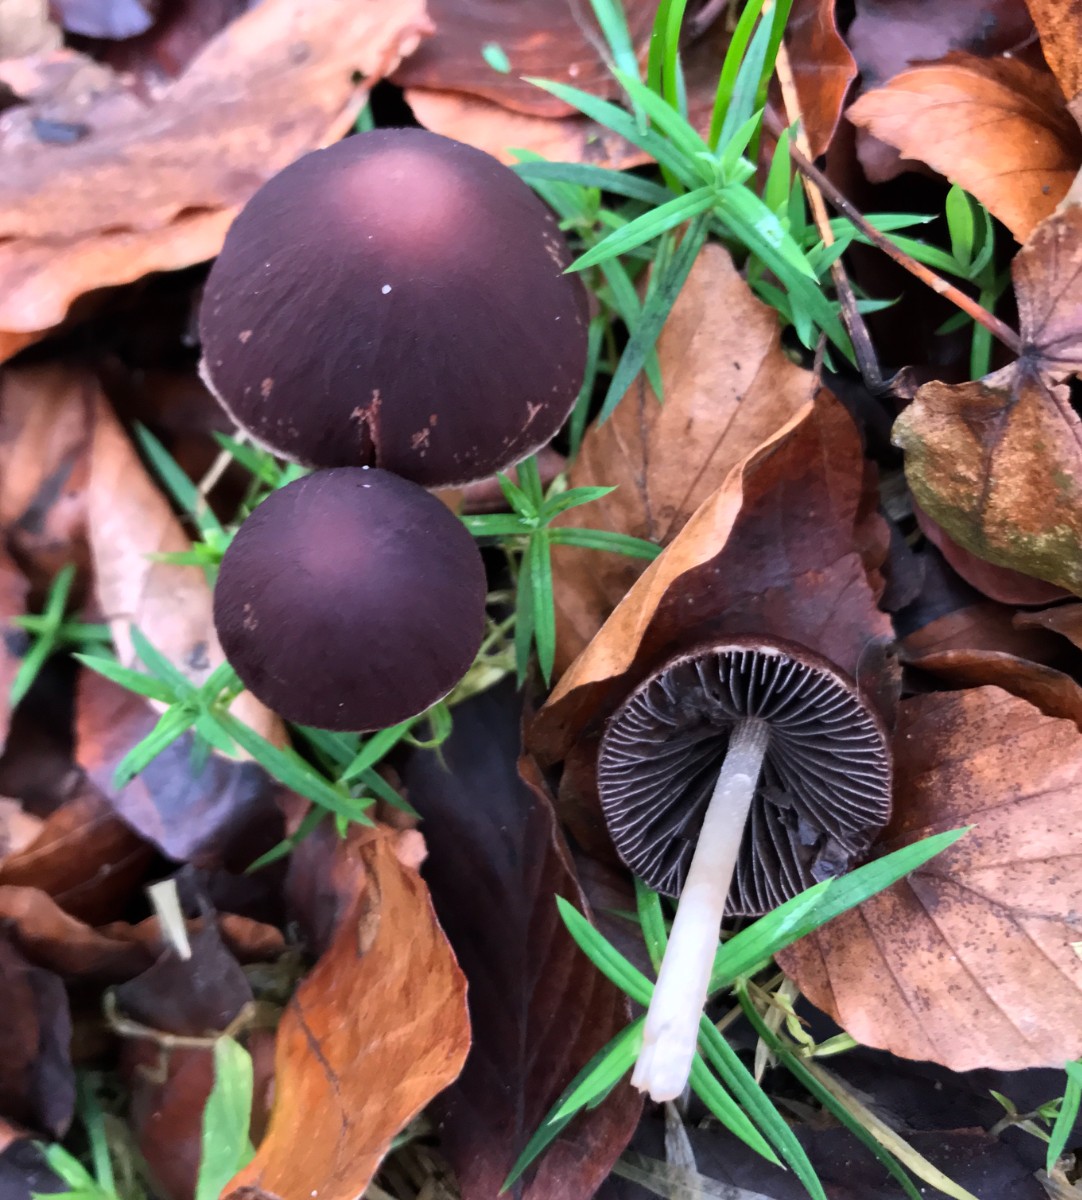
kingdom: Fungi
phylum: Basidiomycota
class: Agaricomycetes
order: Agaricales
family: Psathyrellaceae
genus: Psathyrella
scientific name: Psathyrella bipellis
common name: vinrød mørkhat
